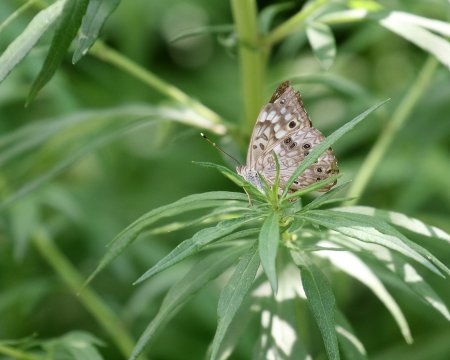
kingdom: Animalia
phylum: Arthropoda
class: Insecta
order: Lepidoptera
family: Nymphalidae
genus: Asterocampa
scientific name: Asterocampa celtis
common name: Hackberry Emperor
